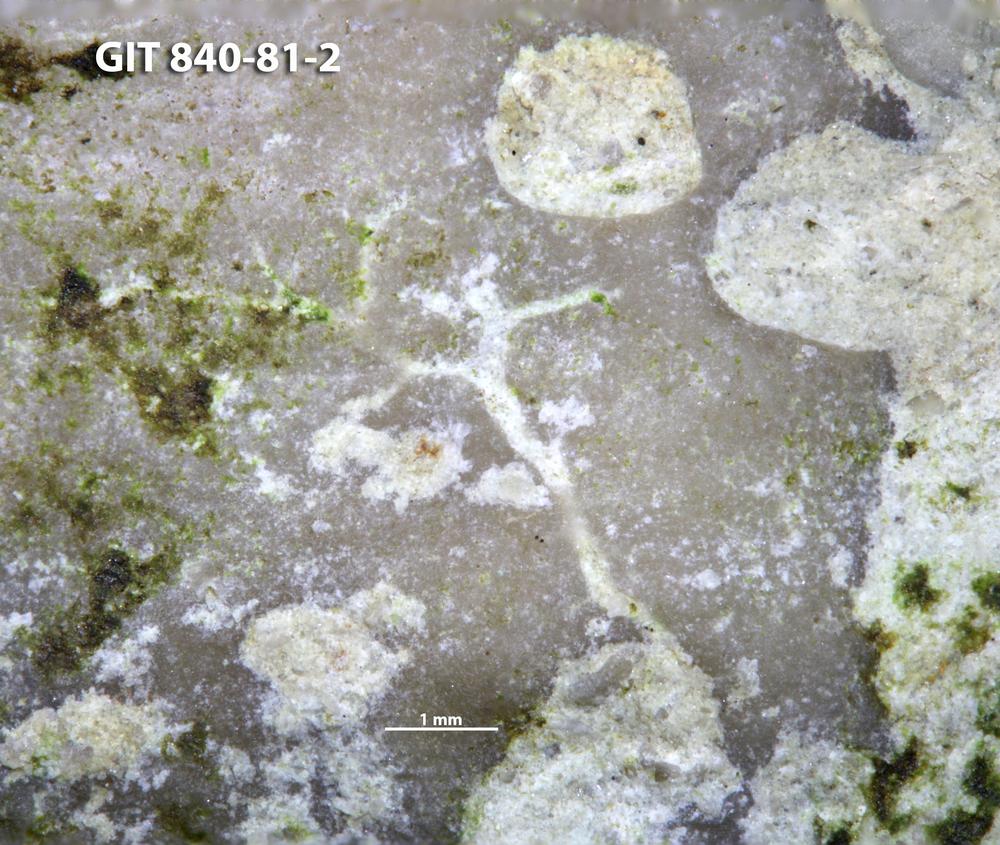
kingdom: Animalia
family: Dendrinidae
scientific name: Dendrinidae
